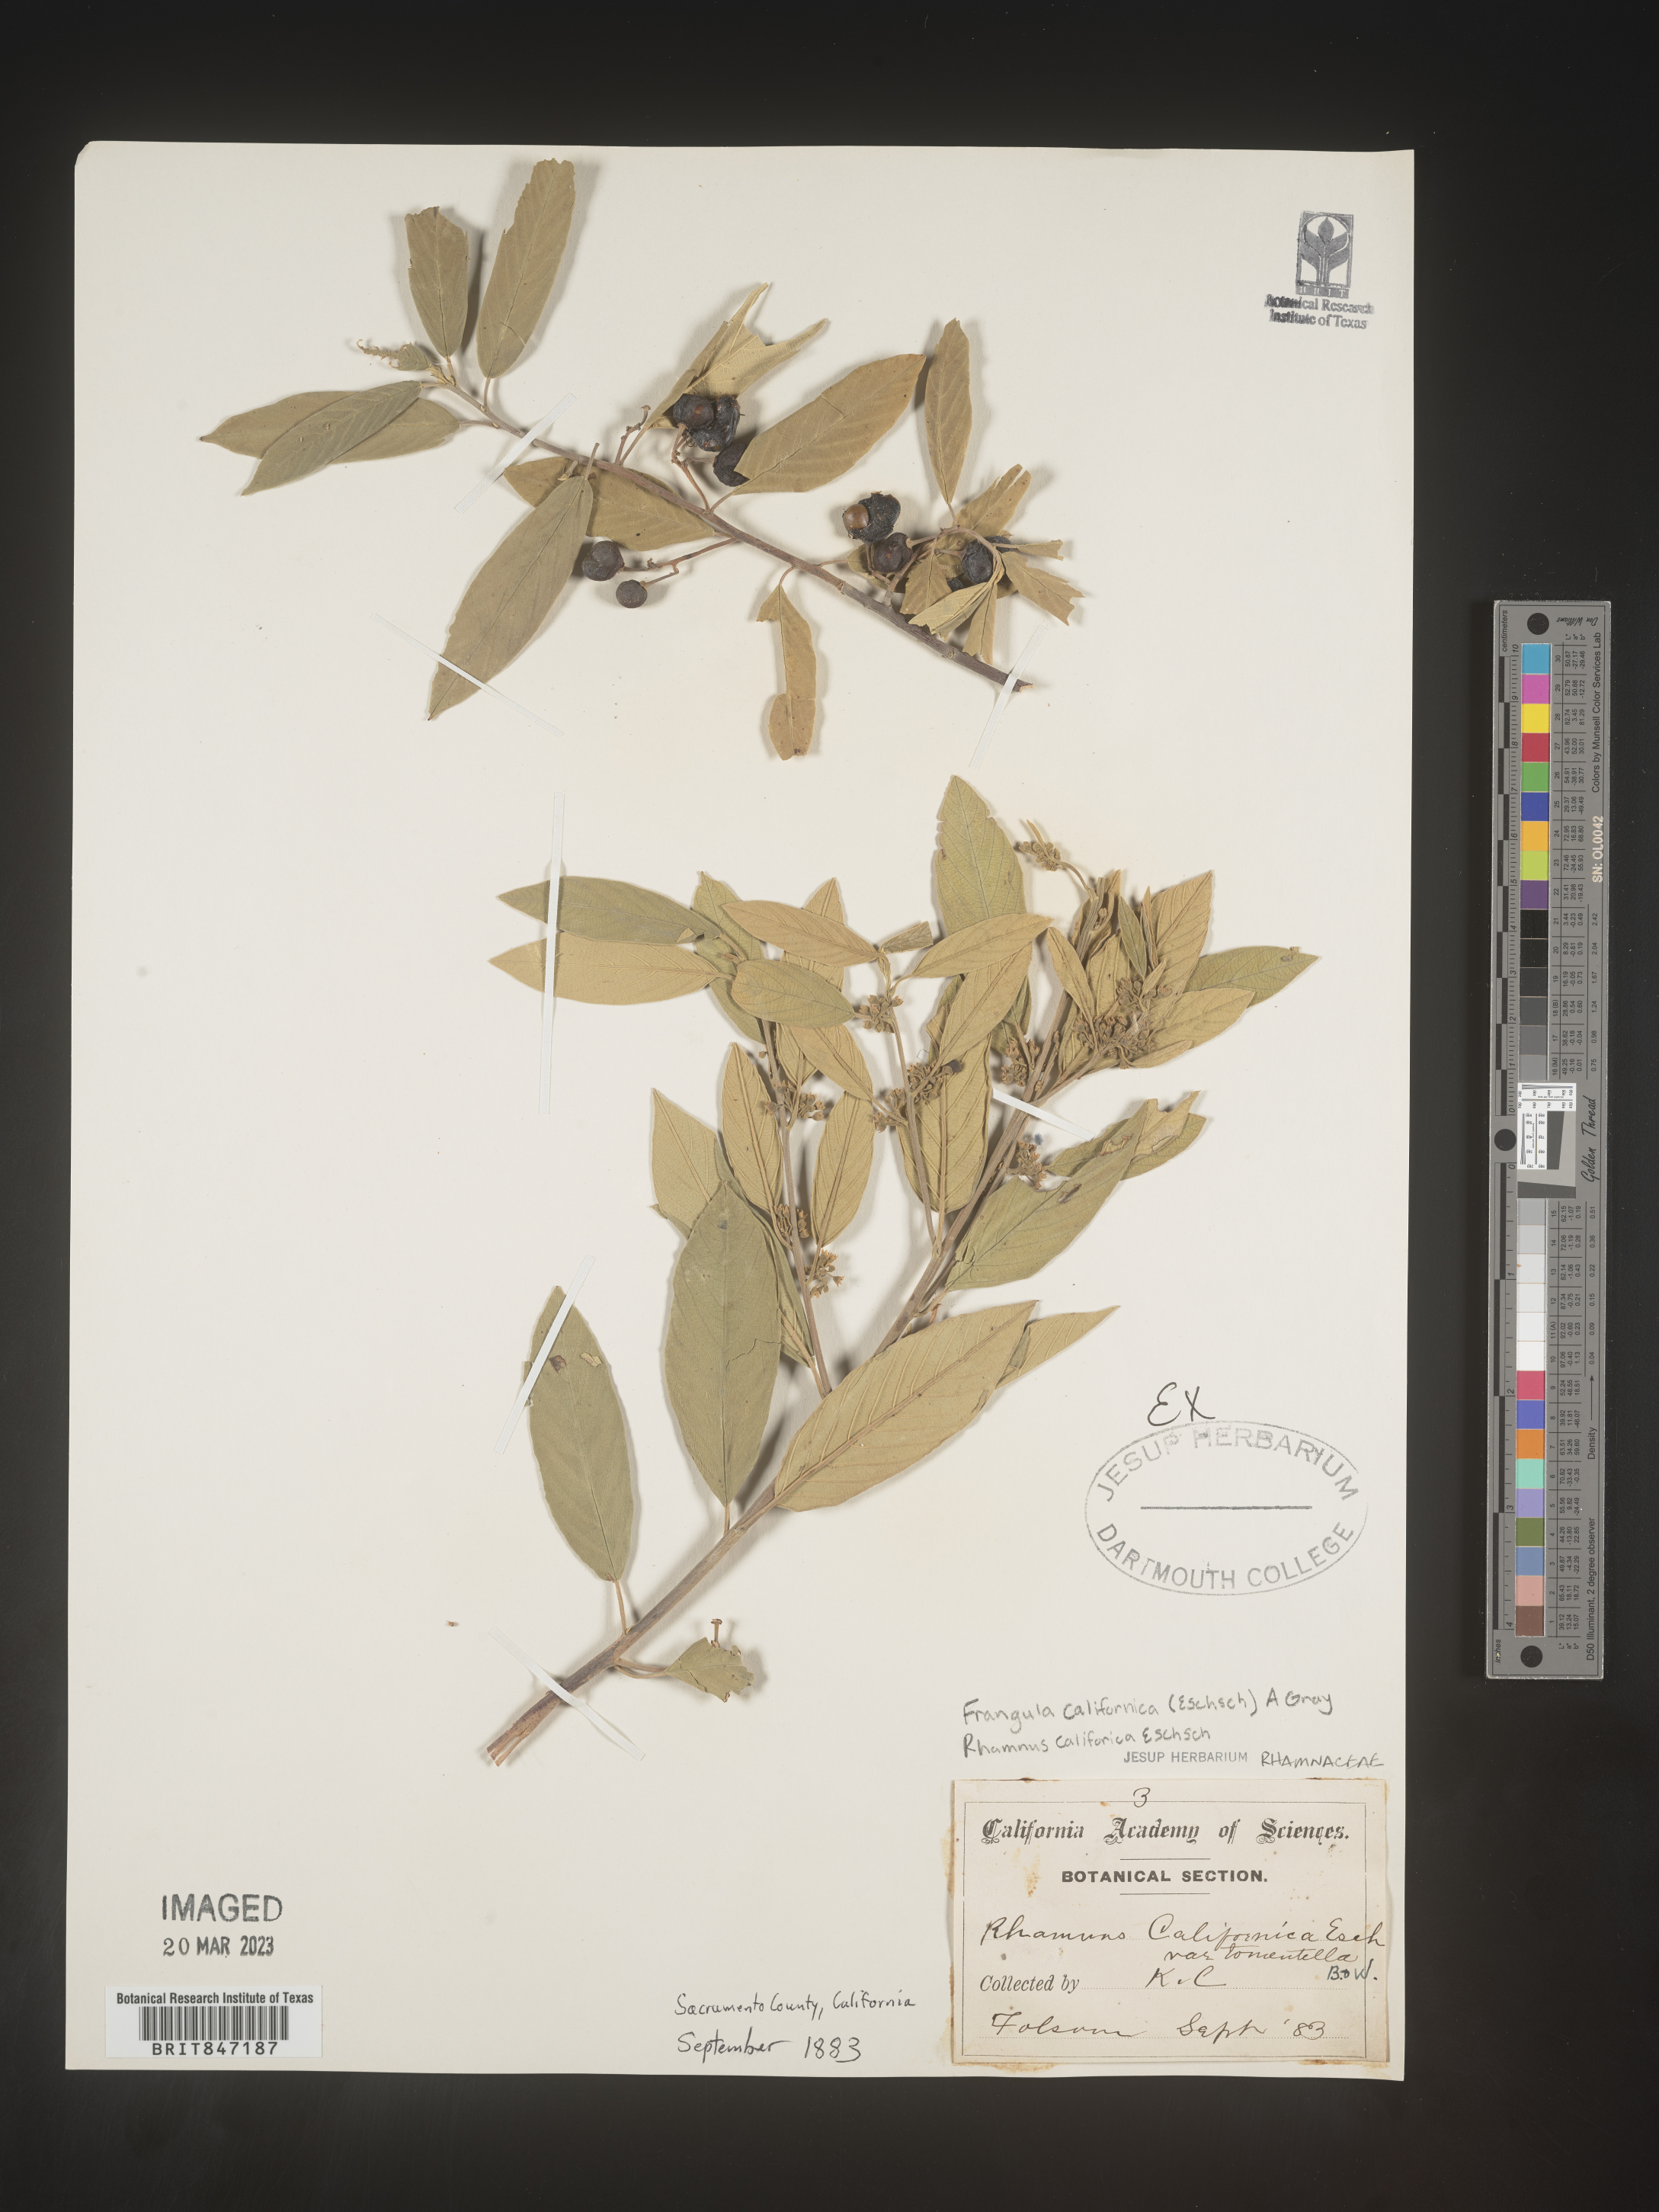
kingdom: Plantae
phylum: Tracheophyta
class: Magnoliopsida
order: Rosales
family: Rhamnaceae
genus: Frangula
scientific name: Frangula
